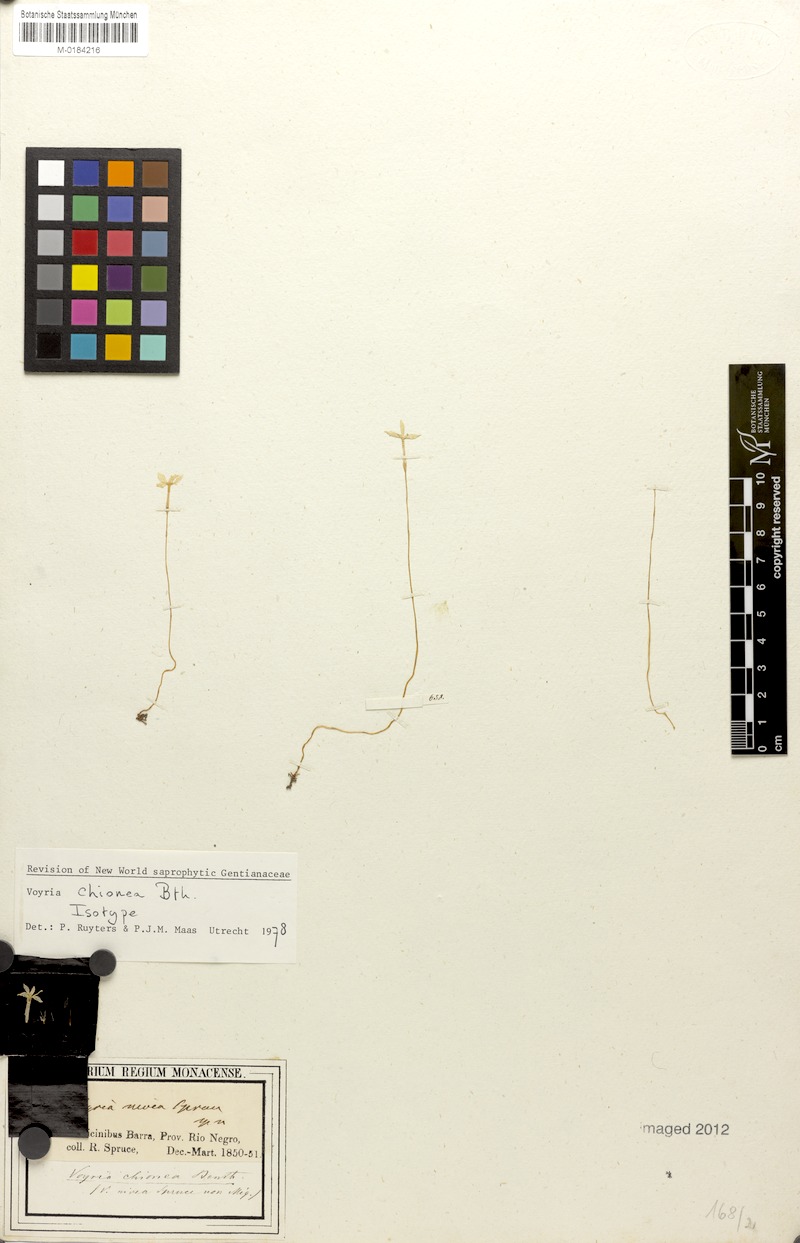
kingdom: Plantae
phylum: Tracheophyta
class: Magnoliopsida
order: Gentianales
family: Gentianaceae
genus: Voyria
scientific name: Voyria chionea
